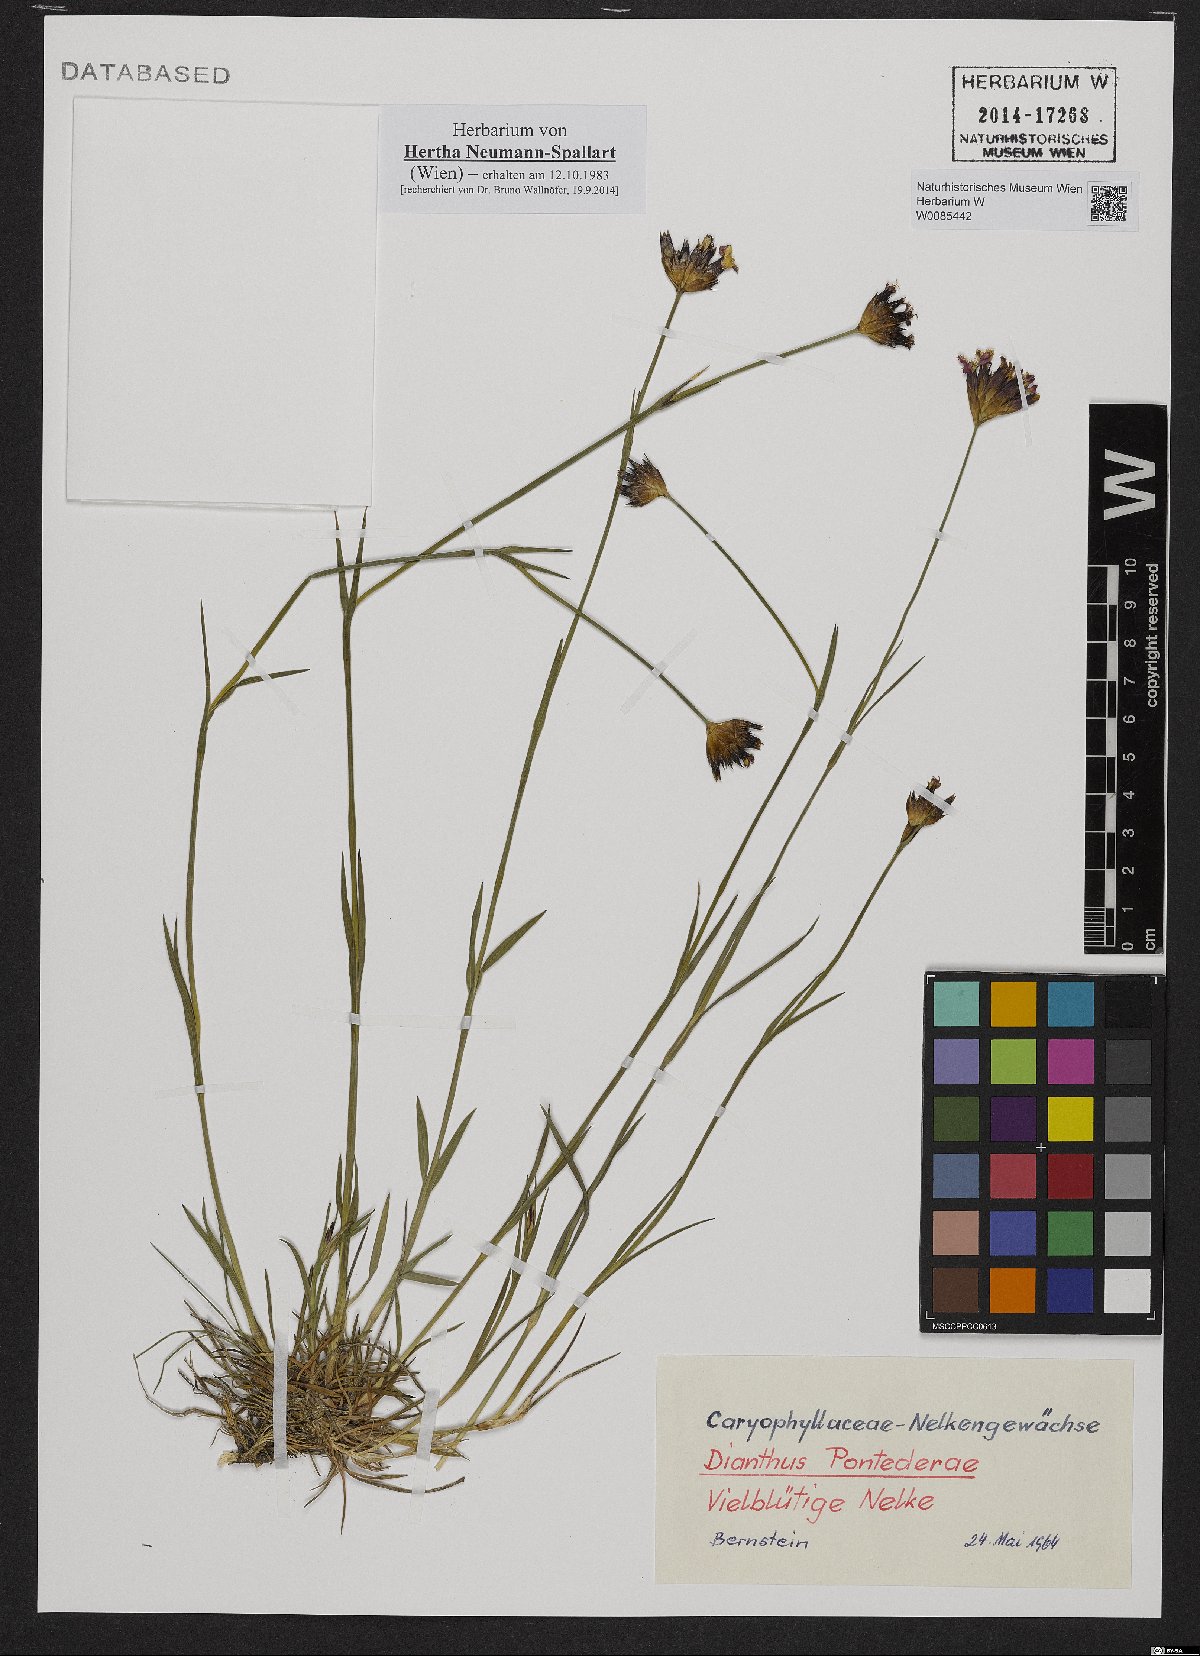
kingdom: Plantae
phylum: Tracheophyta
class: Magnoliopsida
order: Caryophyllales
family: Caryophyllaceae
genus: Dianthus
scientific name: Dianthus pontederae
